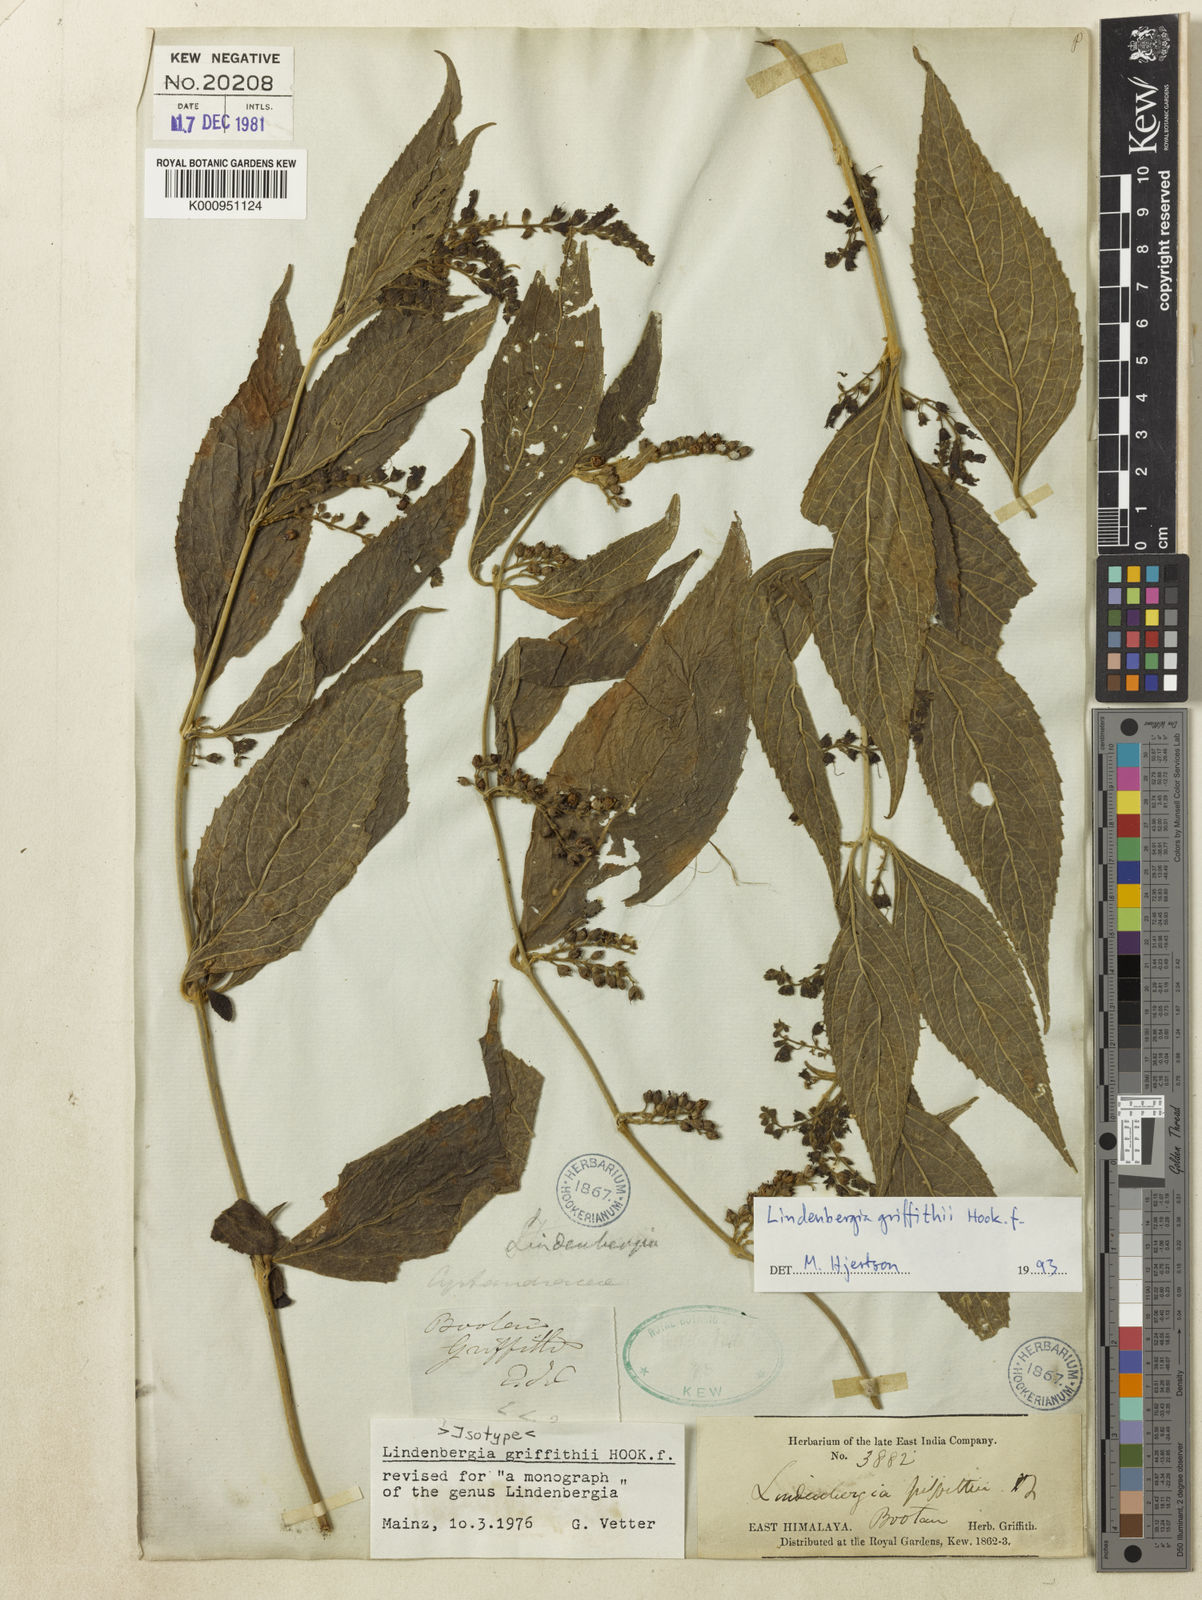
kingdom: Plantae
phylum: Tracheophyta
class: Magnoliopsida
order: Lamiales
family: Orobanchaceae
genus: Lindenbergia
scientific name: Lindenbergia griffithii
